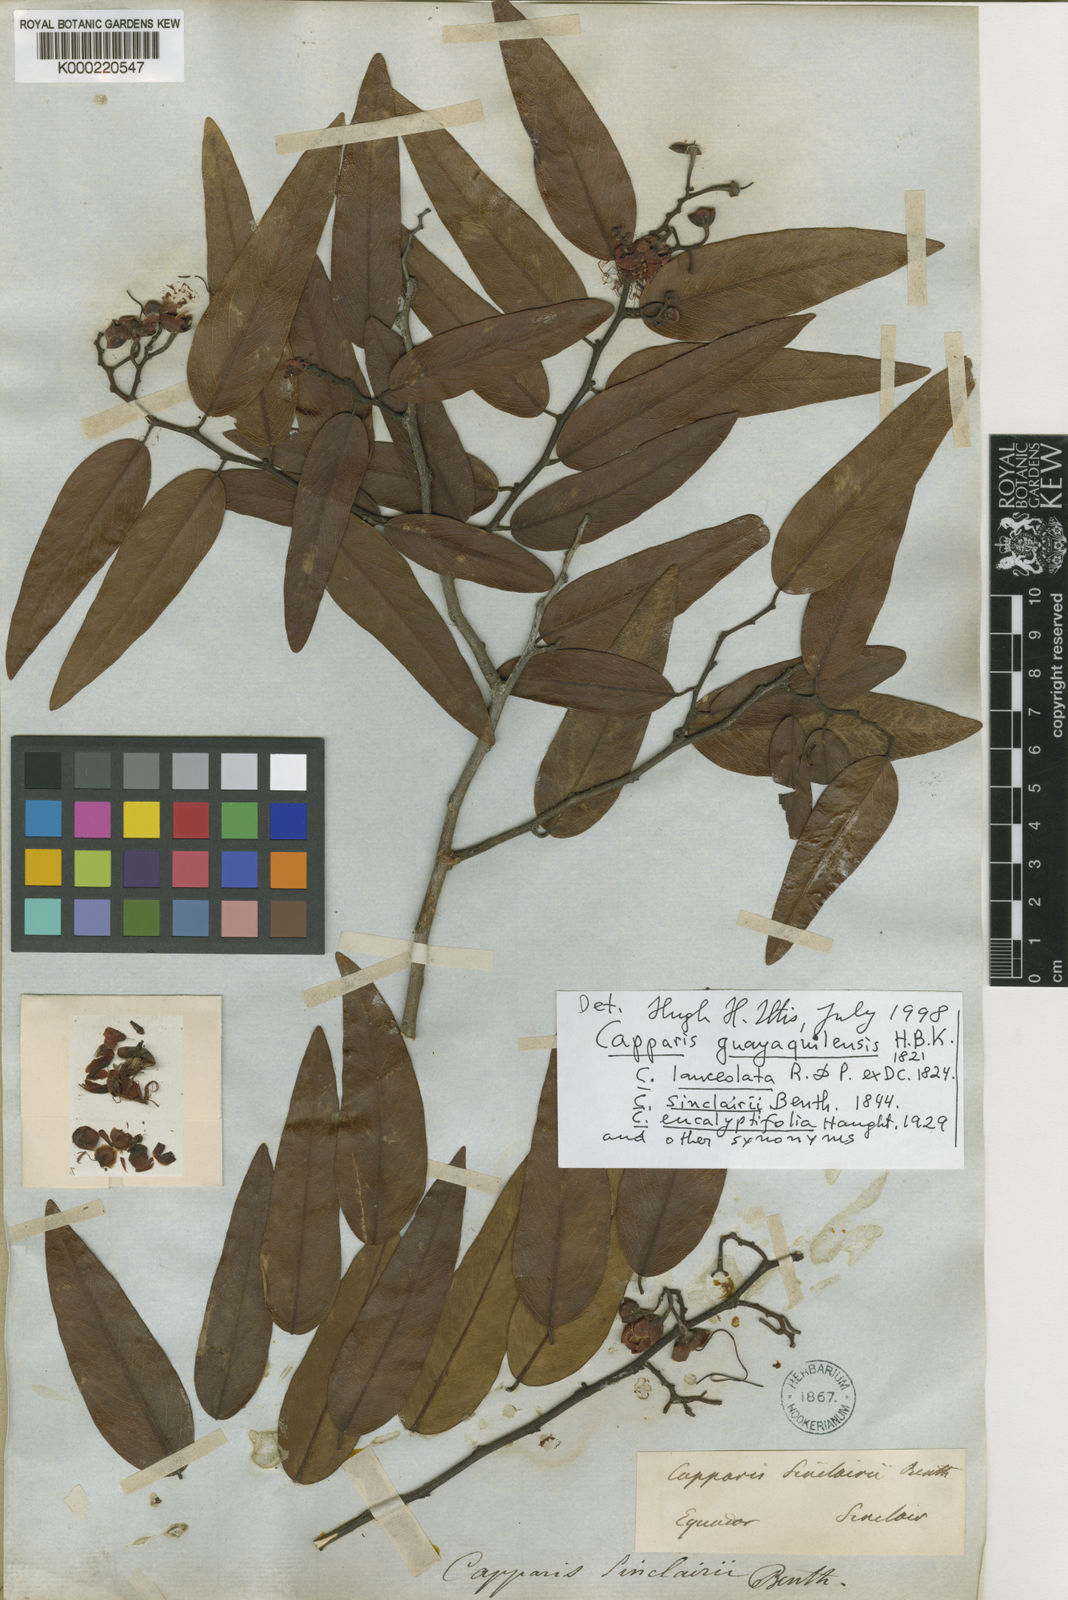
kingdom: Plantae
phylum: Tracheophyta
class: Magnoliopsida
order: Brassicales
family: Capparaceae
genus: Cynophalla
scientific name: Cynophalla guayaquilensis
